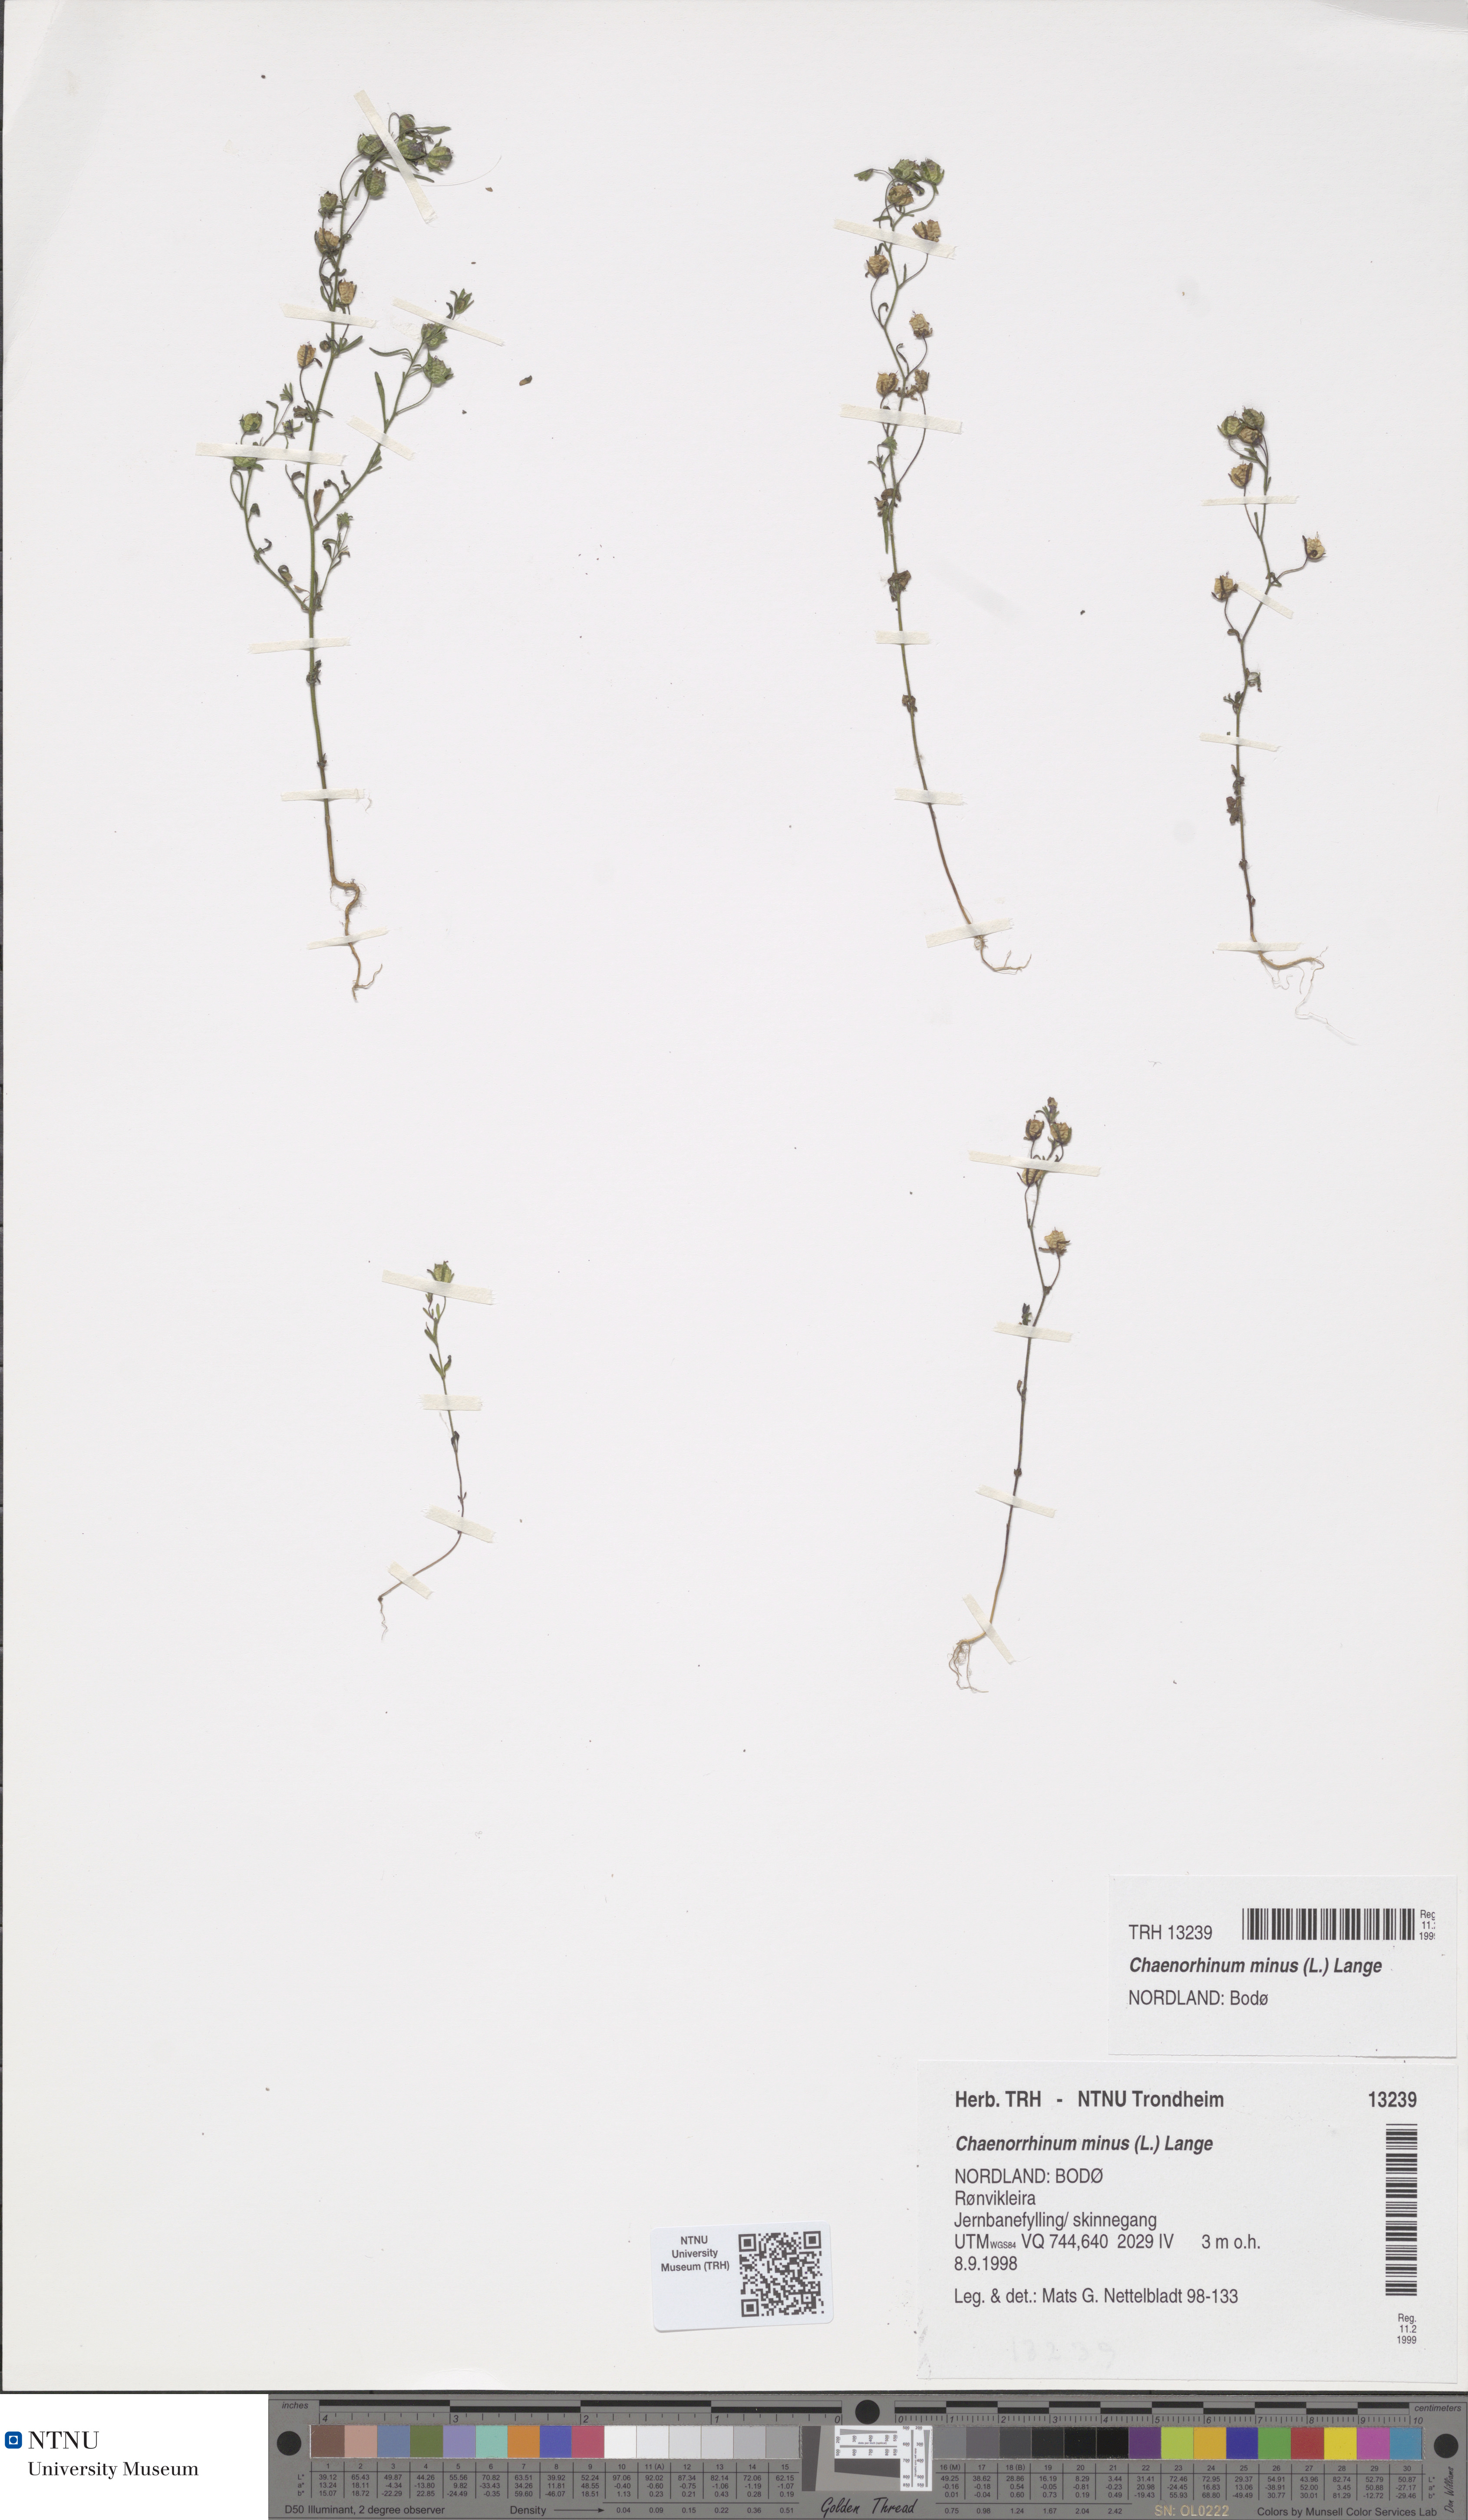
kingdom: Plantae
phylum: Tracheophyta
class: Magnoliopsida
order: Lamiales
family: Plantaginaceae
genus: Chaenorhinum
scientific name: Chaenorhinum minus
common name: Dwarf snapdragon
